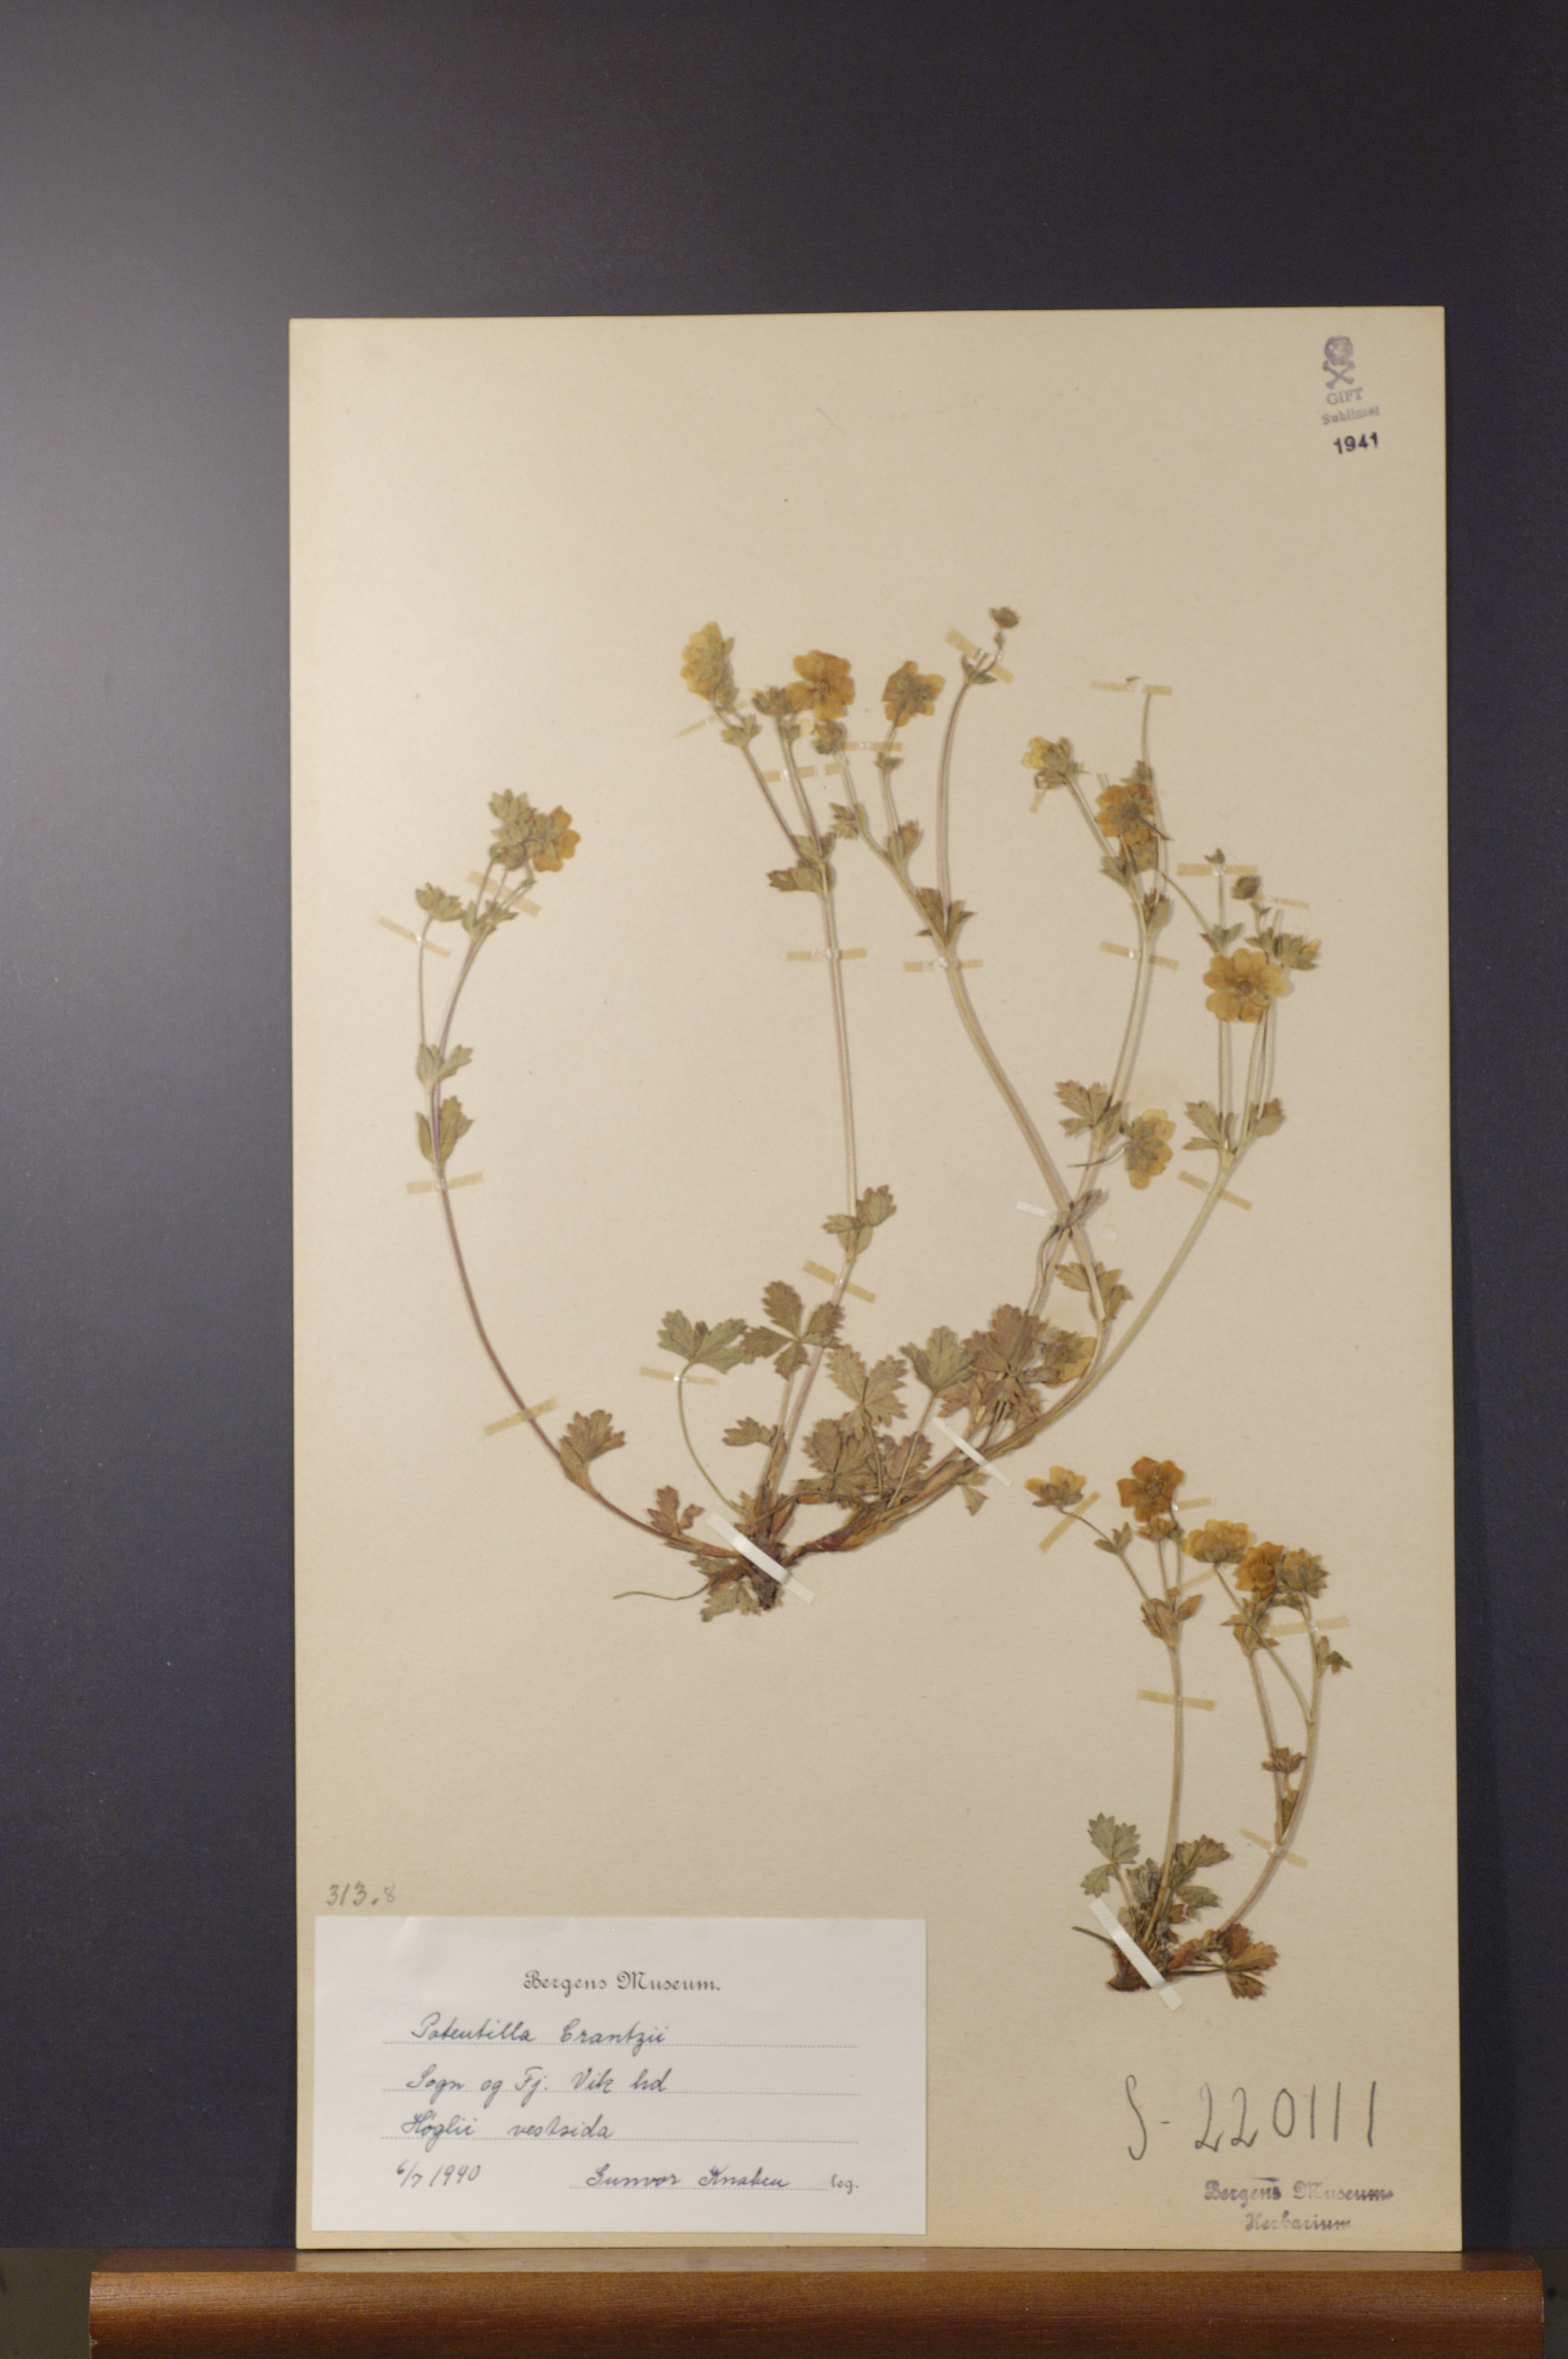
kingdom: Plantae
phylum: Tracheophyta
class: Magnoliopsida
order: Rosales
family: Rosaceae
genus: Potentilla
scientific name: Potentilla crantzii
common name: Alpine cinquefoil
